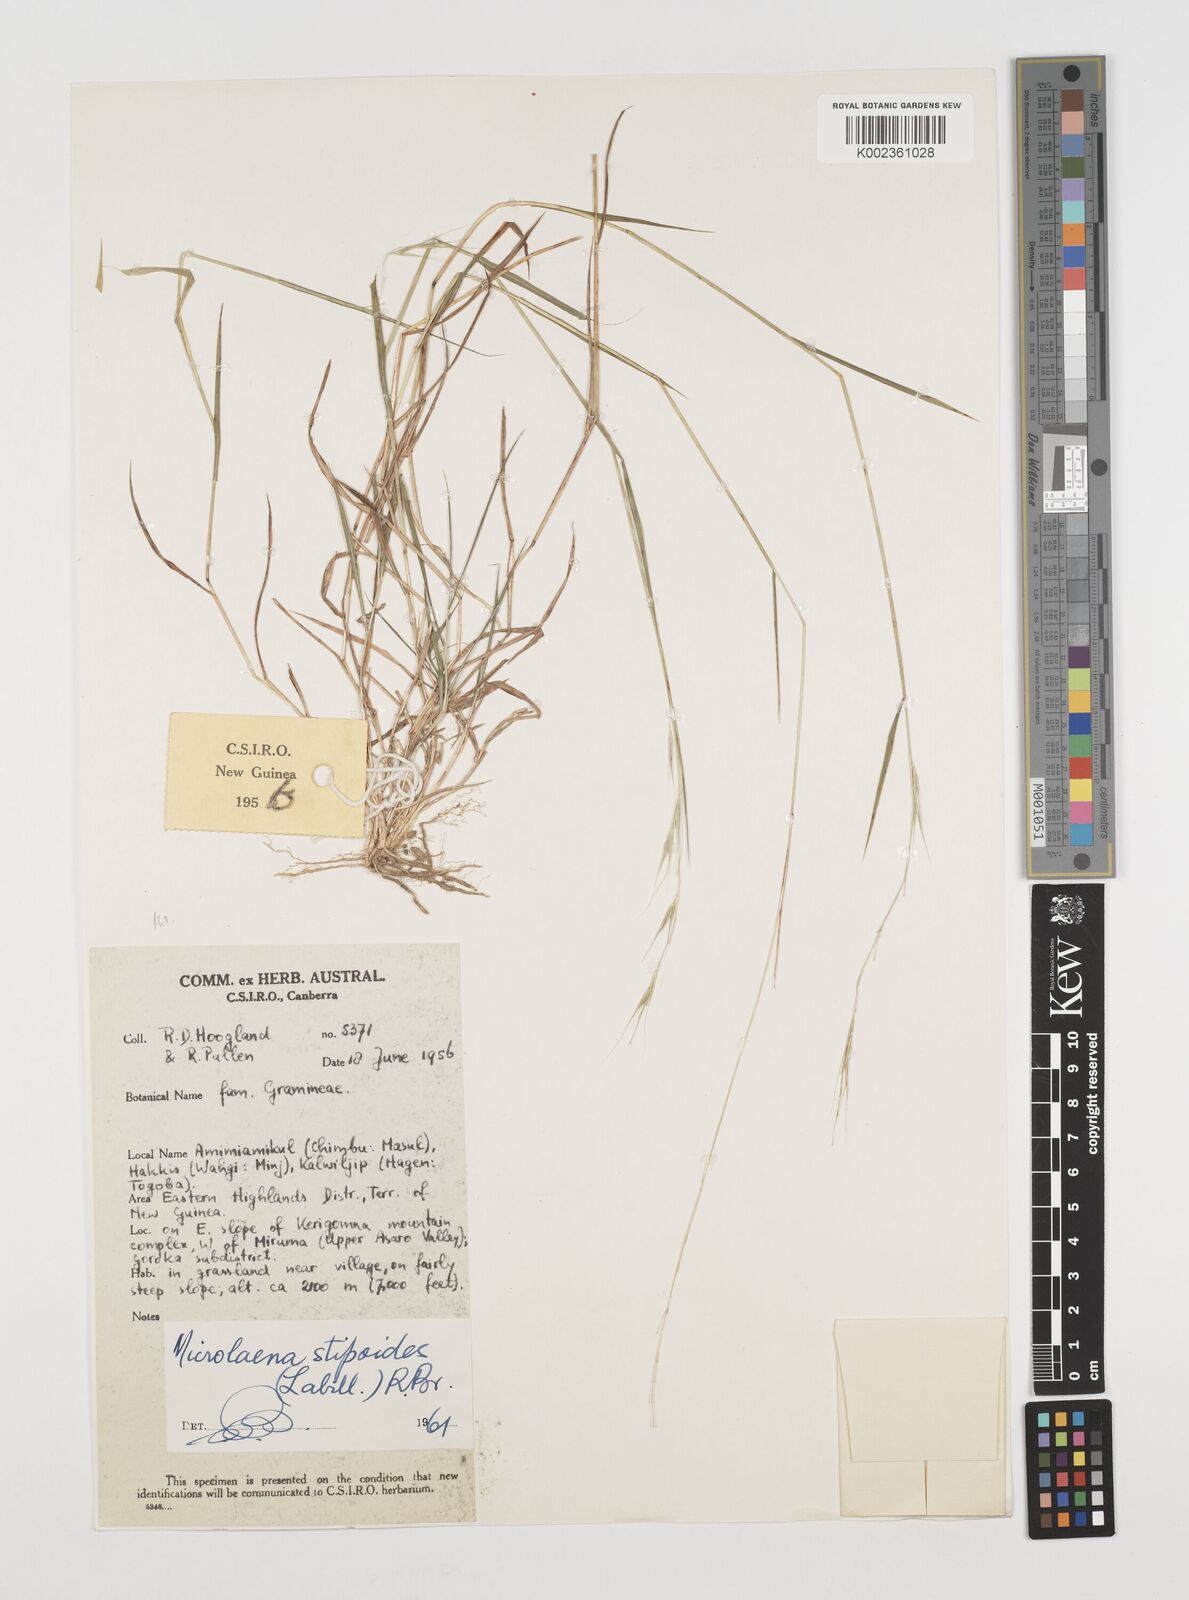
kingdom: Plantae
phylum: Tracheophyta
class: Liliopsida
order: Poales
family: Poaceae
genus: Microlaena
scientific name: Microlaena stipoides
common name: Meadow ricegrass
